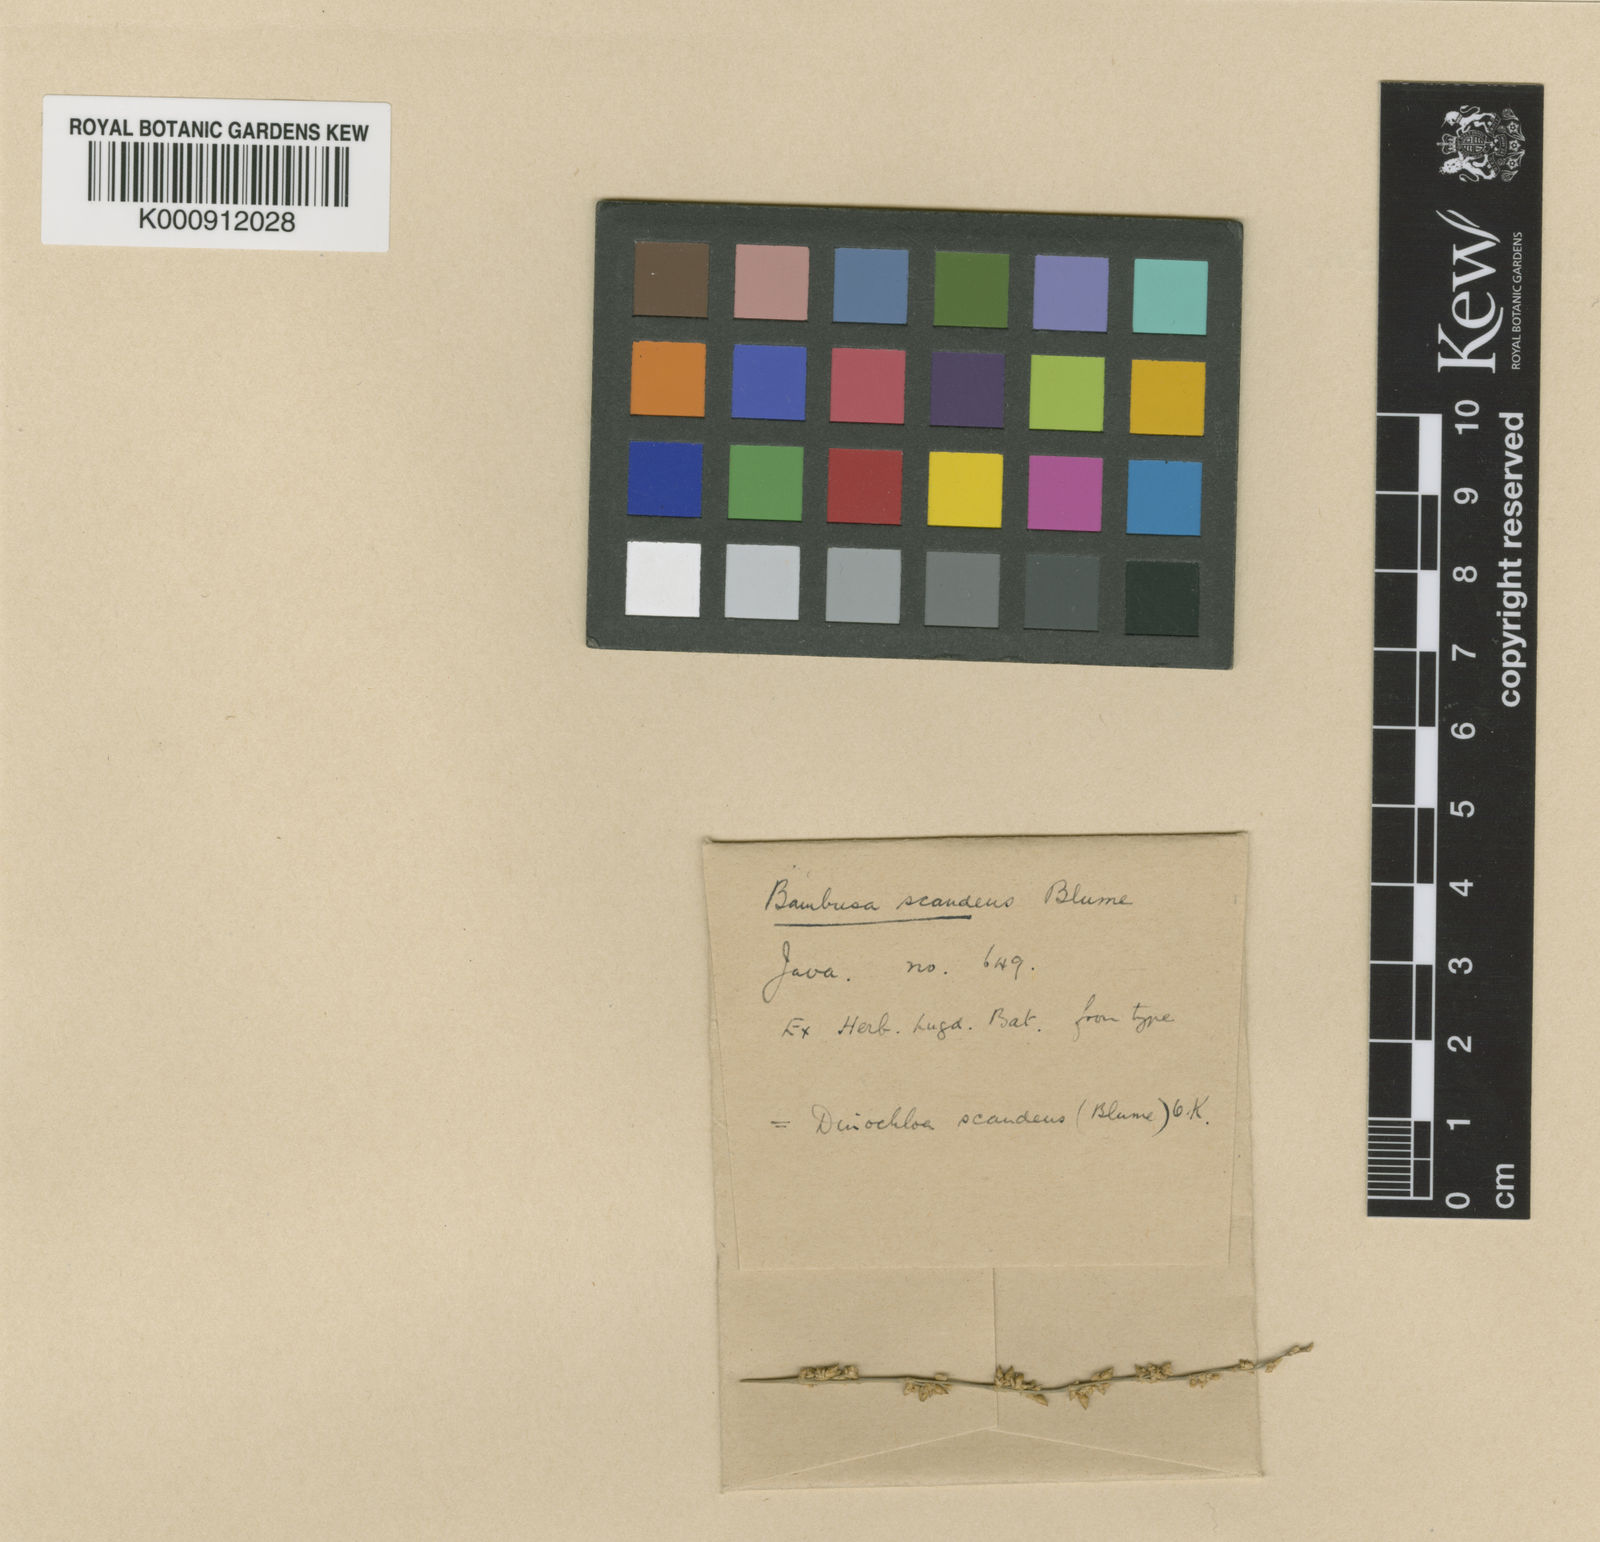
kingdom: Plantae
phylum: Tracheophyta
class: Liliopsida
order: Poales
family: Poaceae
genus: Dinochloa
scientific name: Dinochloa scandens
